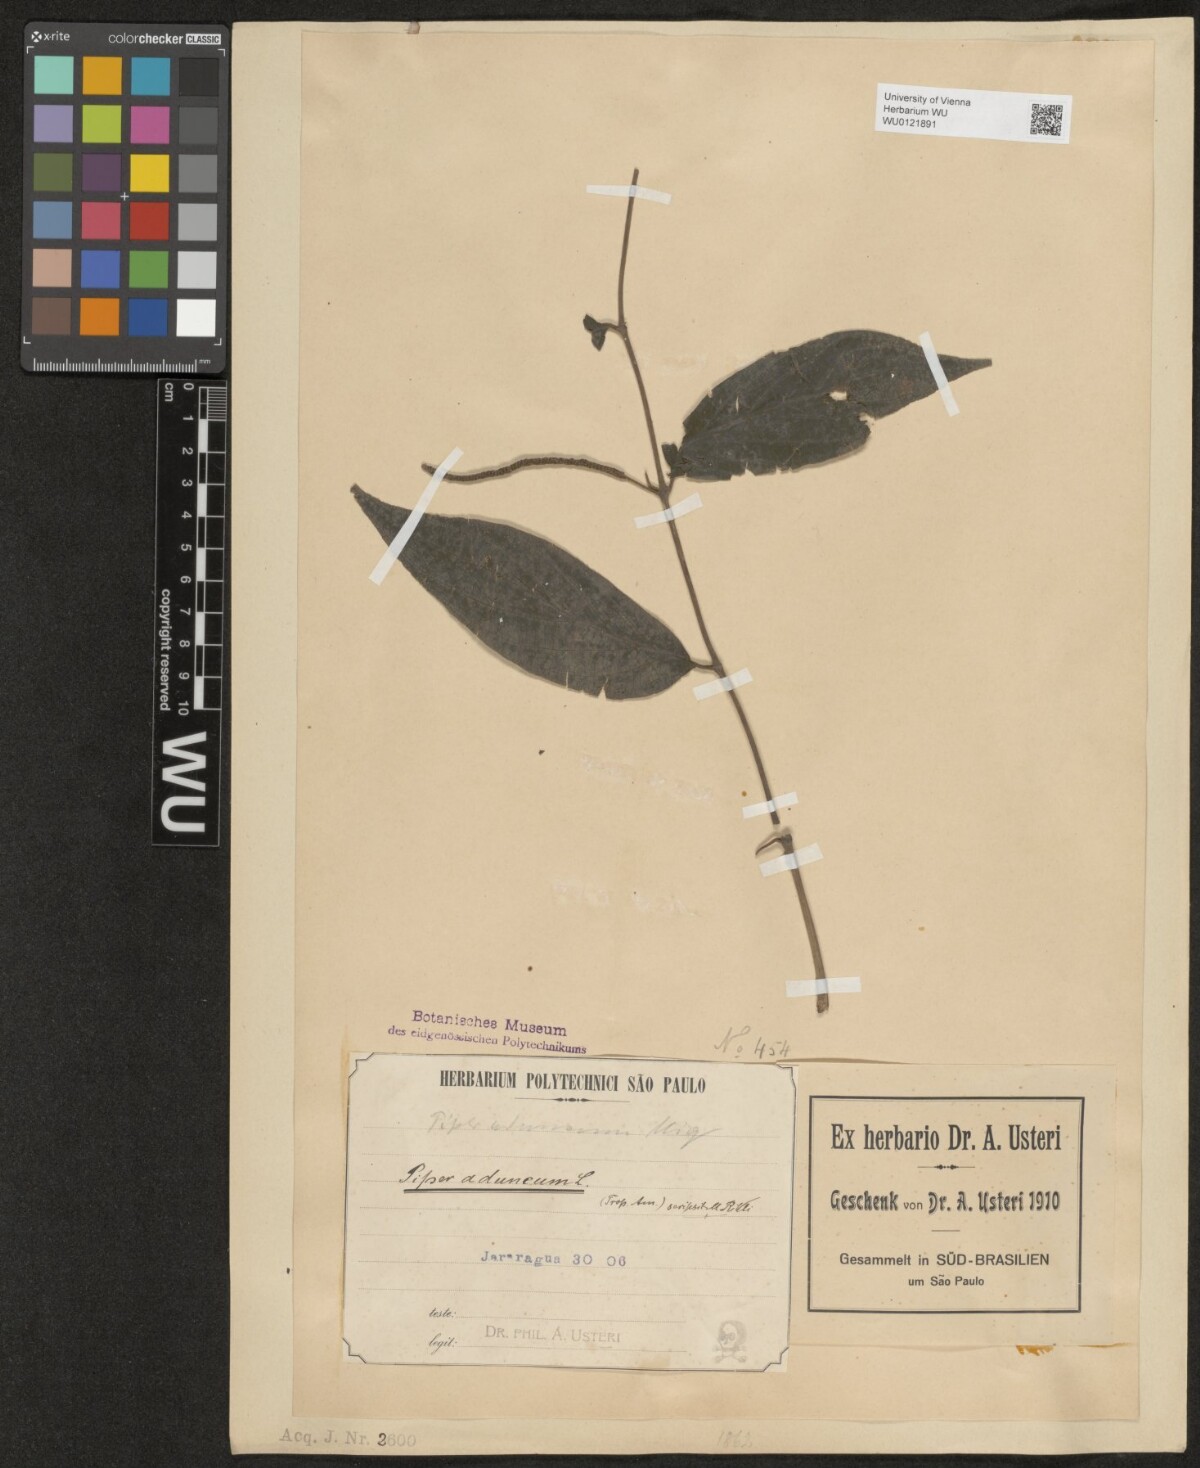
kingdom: Plantae
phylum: Tracheophyta
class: Magnoliopsida
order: Piperales
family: Piperaceae
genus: Piper
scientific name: Piper aduncum
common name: Spiked pepper
